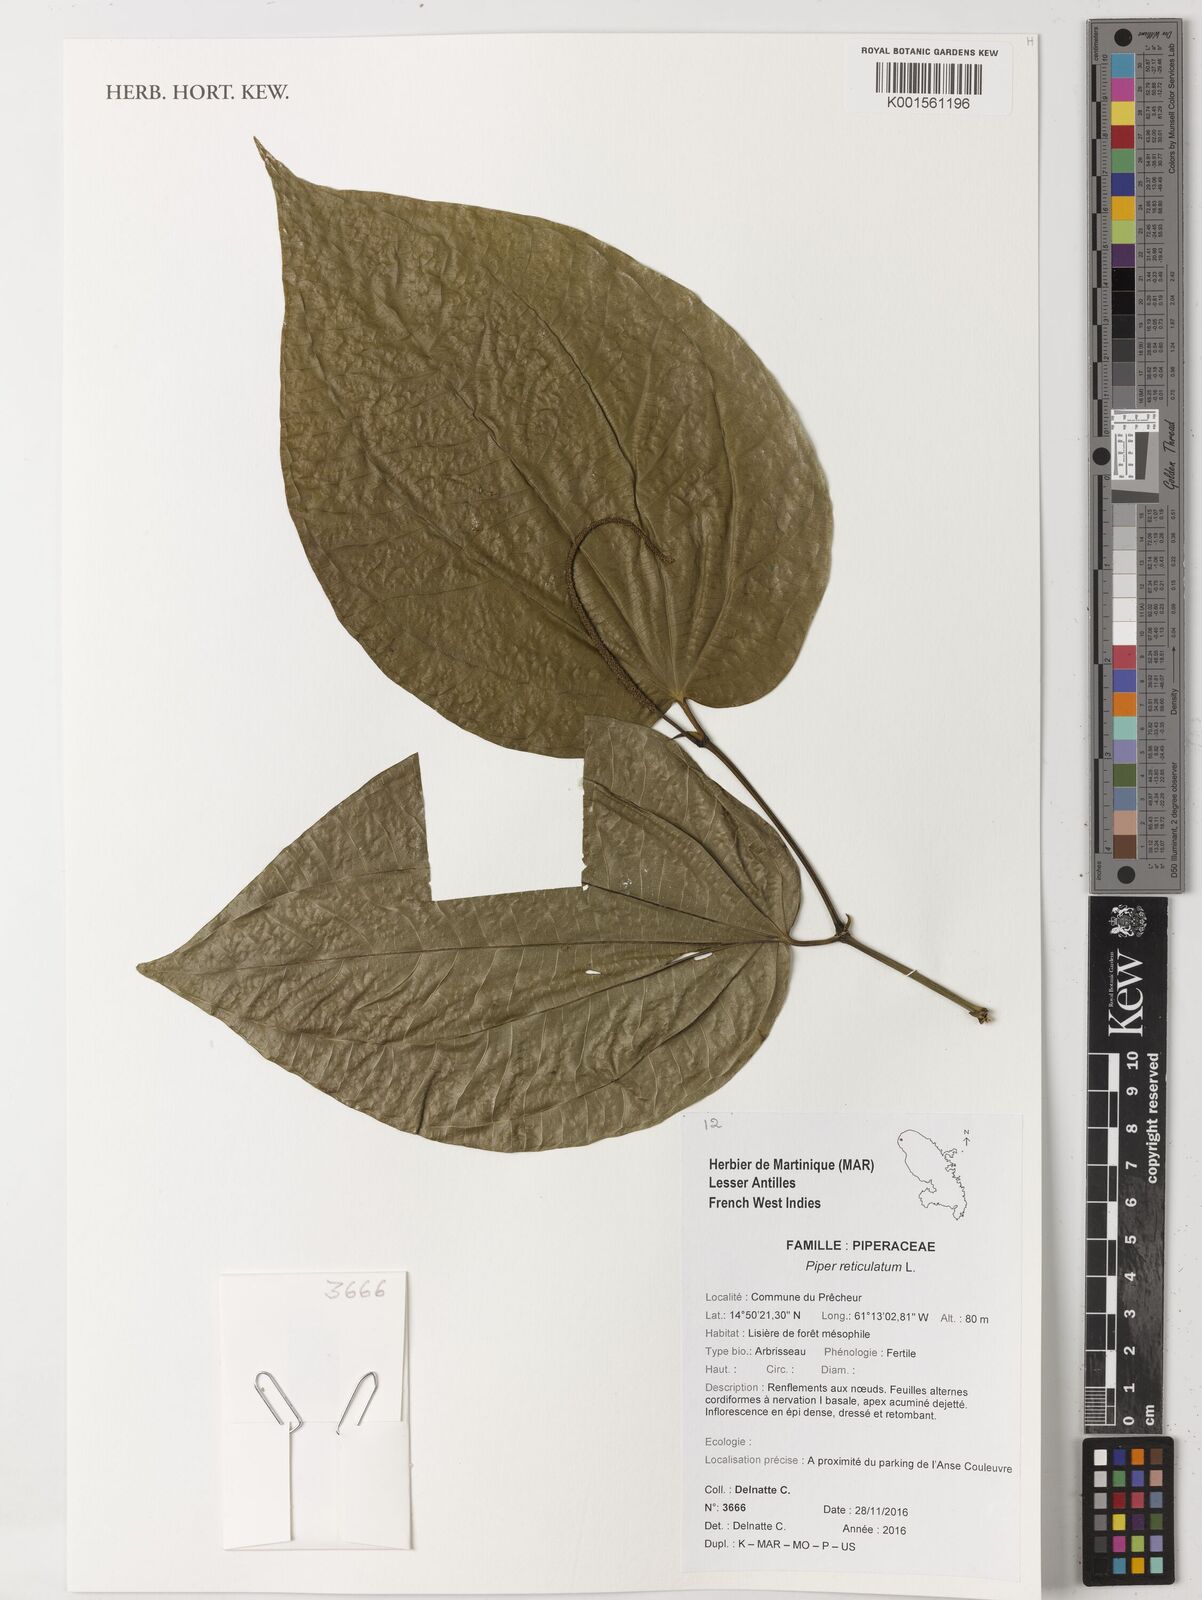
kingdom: Plantae
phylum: Tracheophyta
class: Magnoliopsida
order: Piperales
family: Piperaceae
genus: Piper
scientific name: Piper reticulatum
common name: Wild cane
